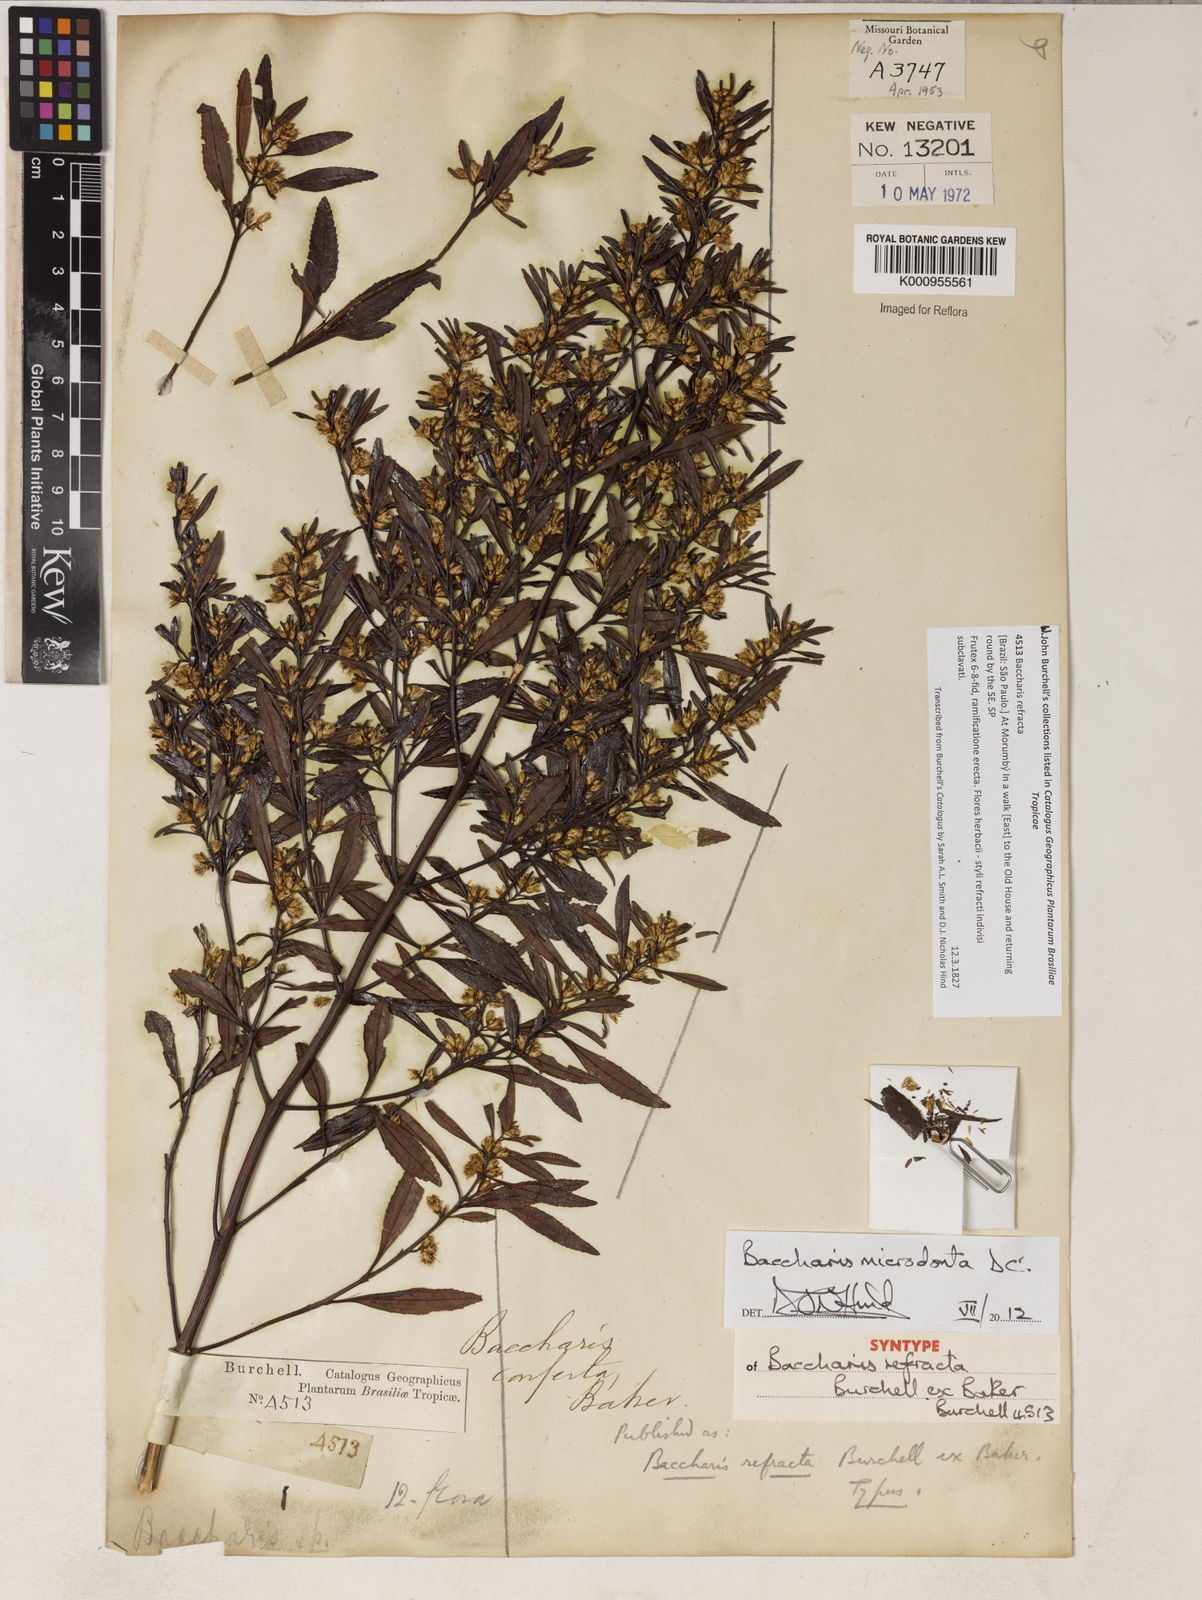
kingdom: Plantae
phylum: Tracheophyta
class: Magnoliopsida
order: Asterales
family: Asteraceae
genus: Baccharis
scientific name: Baccharis dentata
